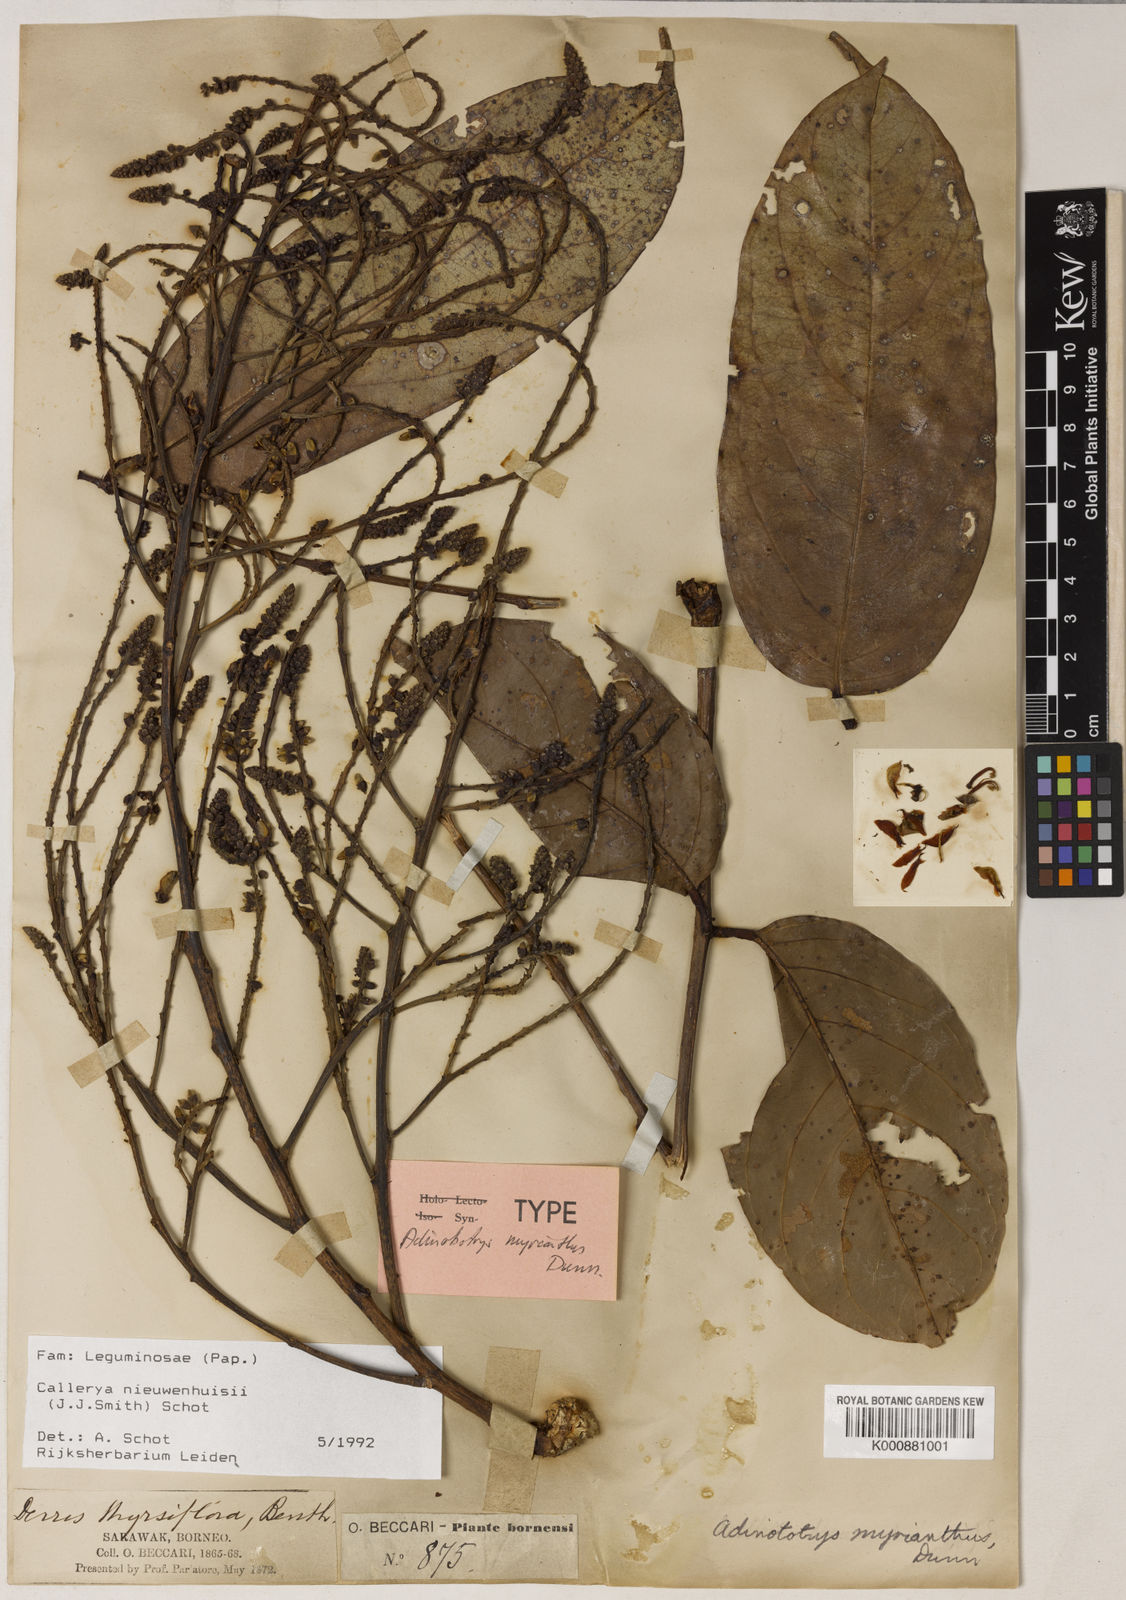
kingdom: Plantae
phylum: Tracheophyta
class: Magnoliopsida
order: Fabales
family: Fabaceae
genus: Whitfordiodendron
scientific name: Whitfordiodendron nieuwenhuisii
